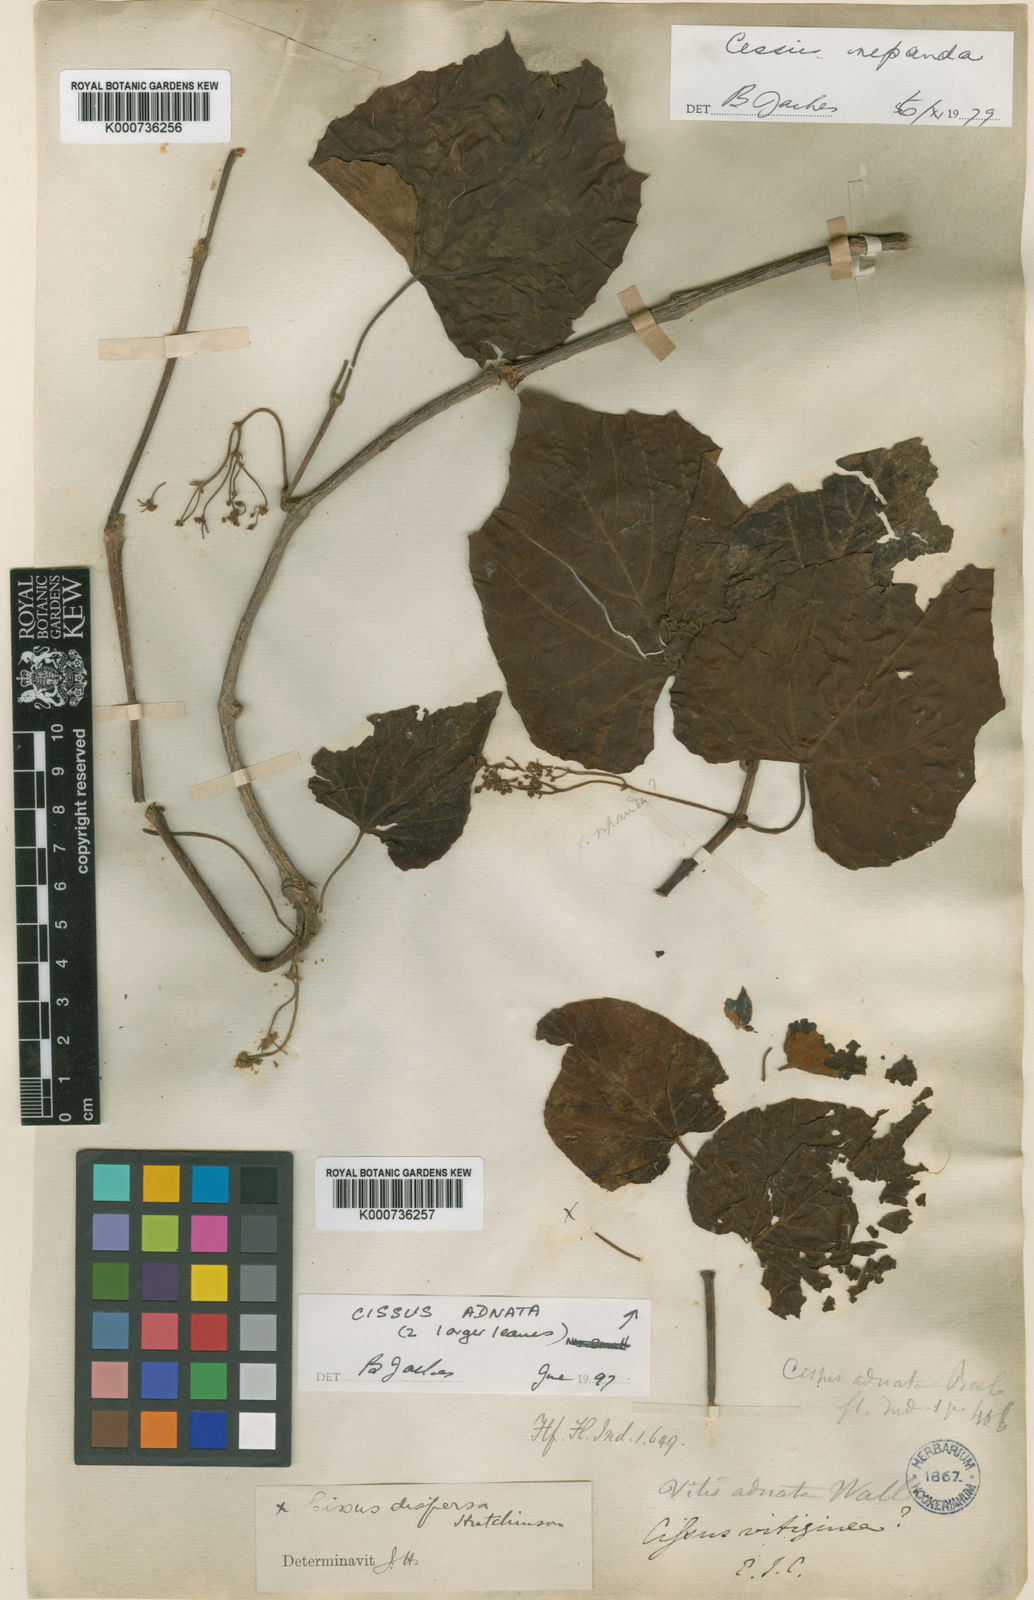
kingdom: Plantae
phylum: Tracheophyta
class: Magnoliopsida
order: Vitales
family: Vitaceae
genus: Cissus
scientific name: Cissus adnata
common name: Heart-leaf-grape
